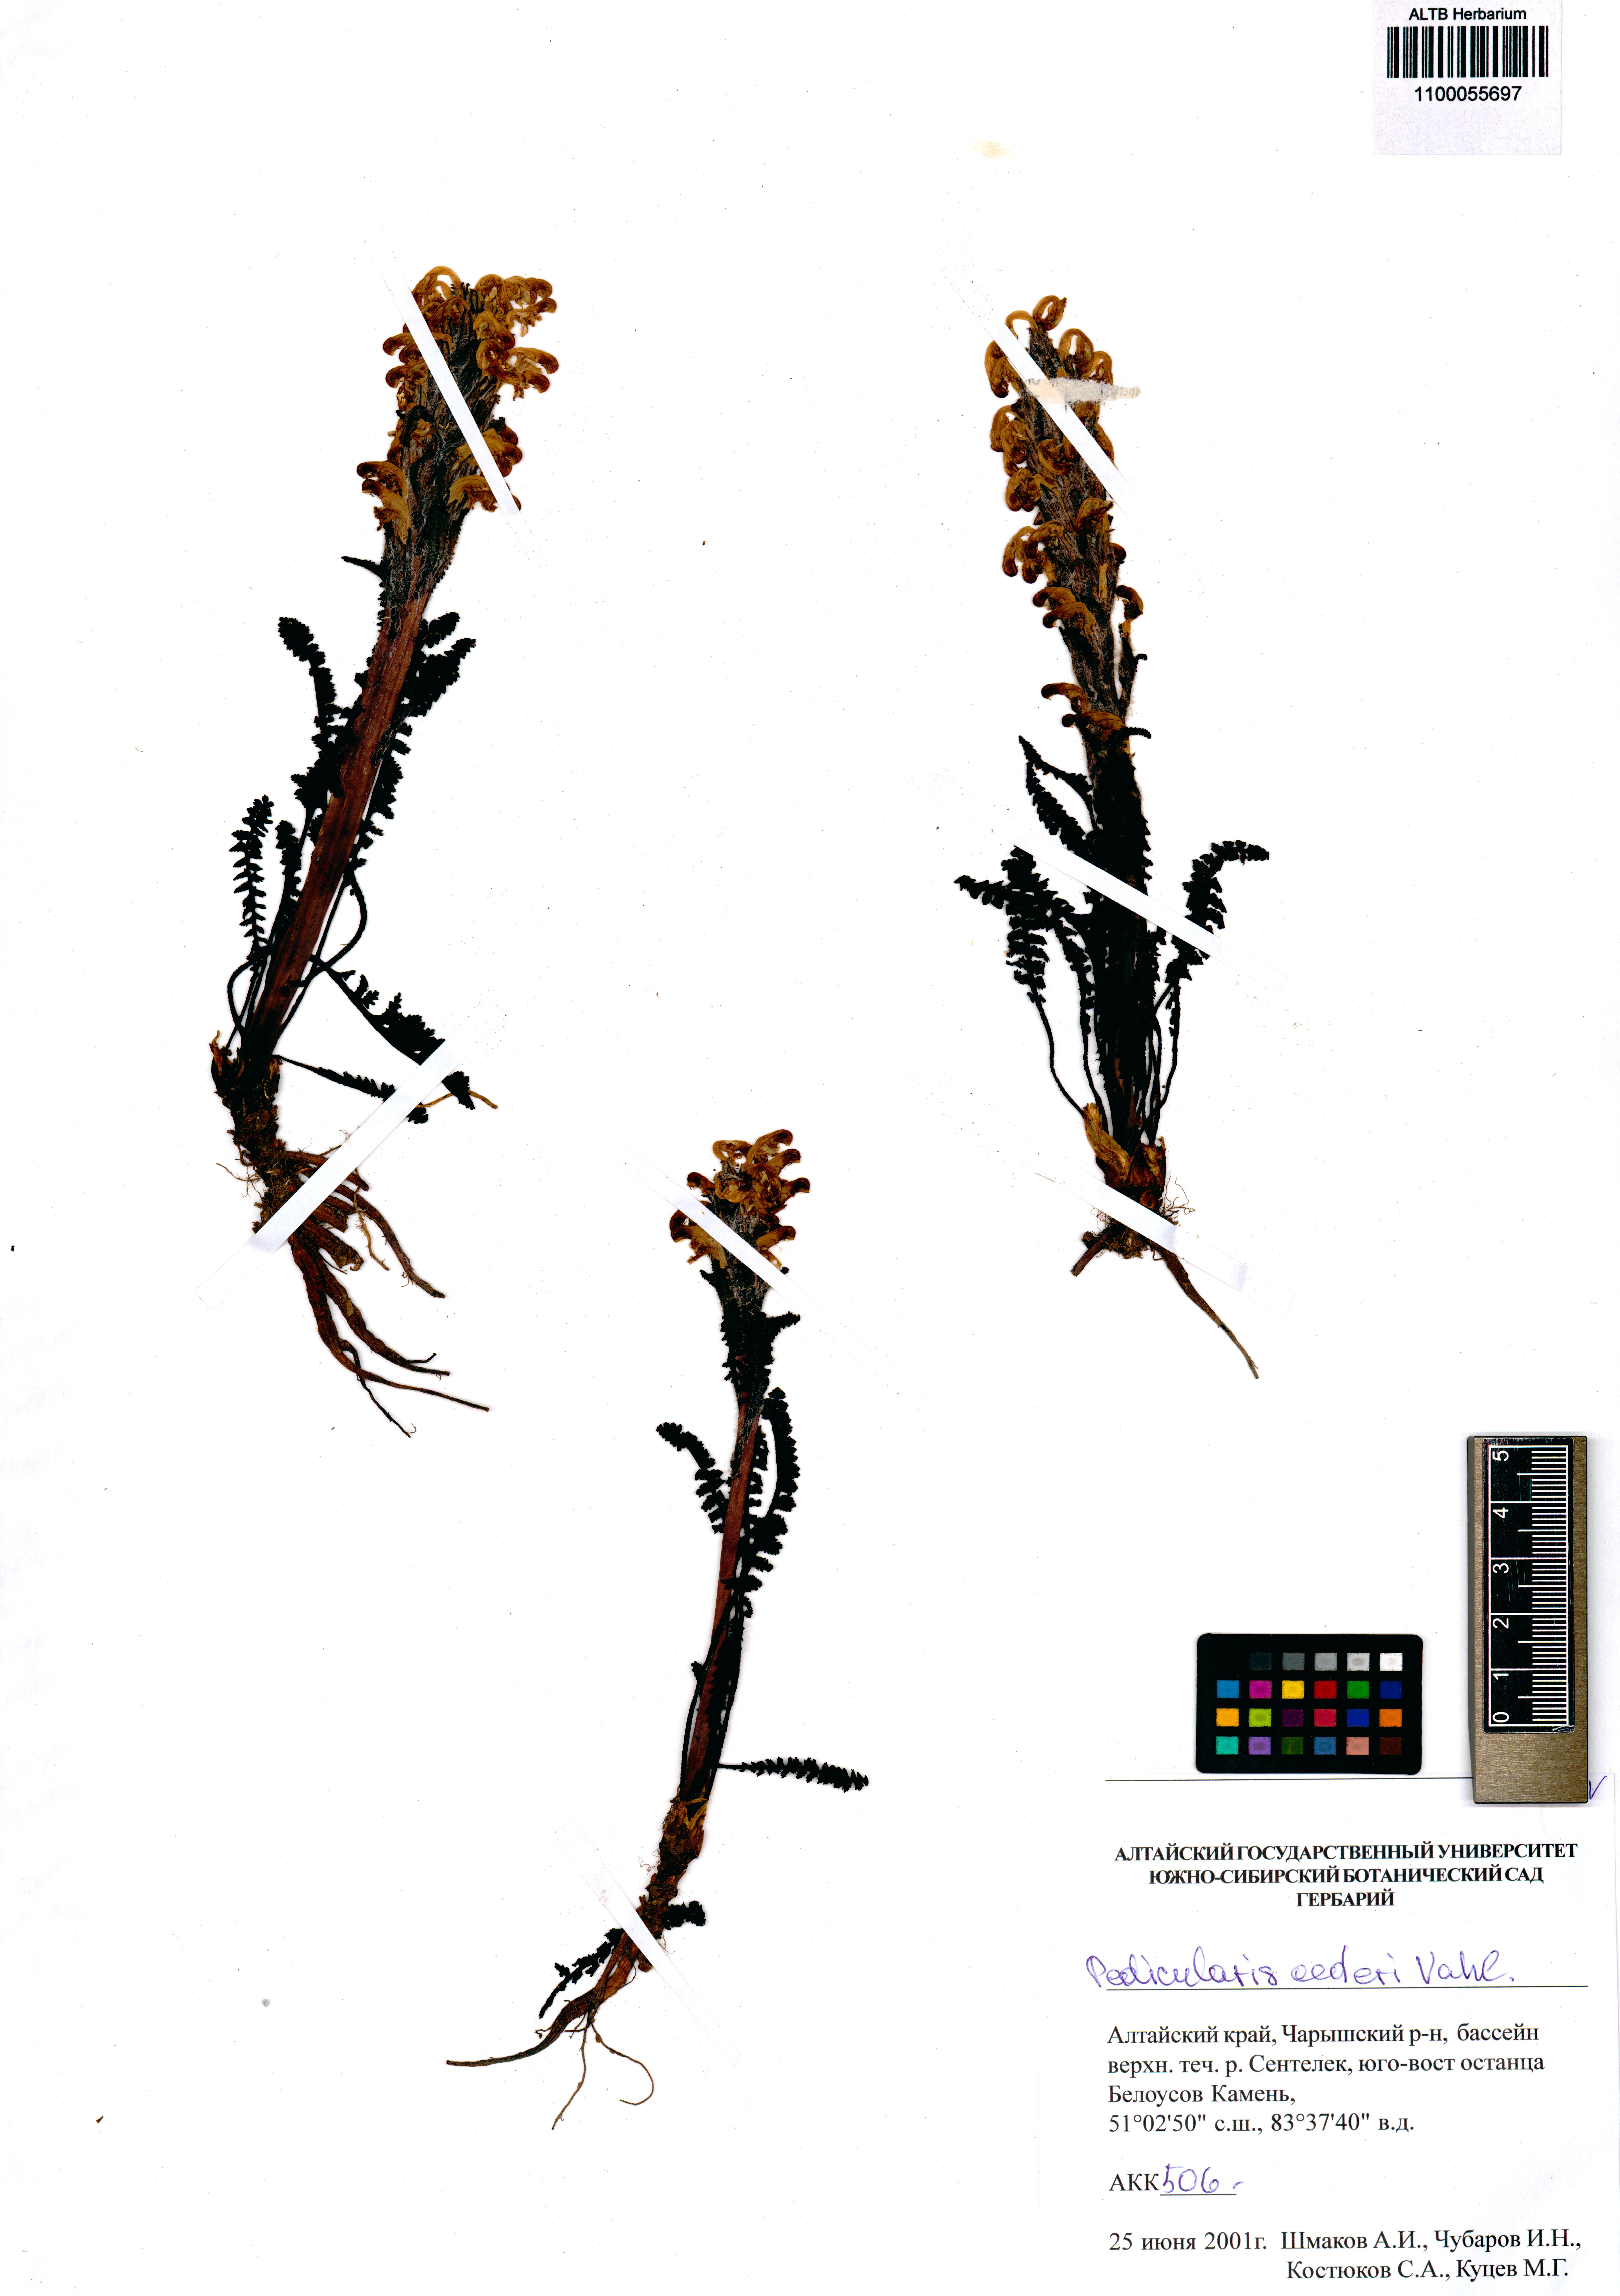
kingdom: Plantae
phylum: Tracheophyta
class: Magnoliopsida
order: Lamiales
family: Orobanchaceae
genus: Pedicularis
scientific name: Pedicularis oederi
